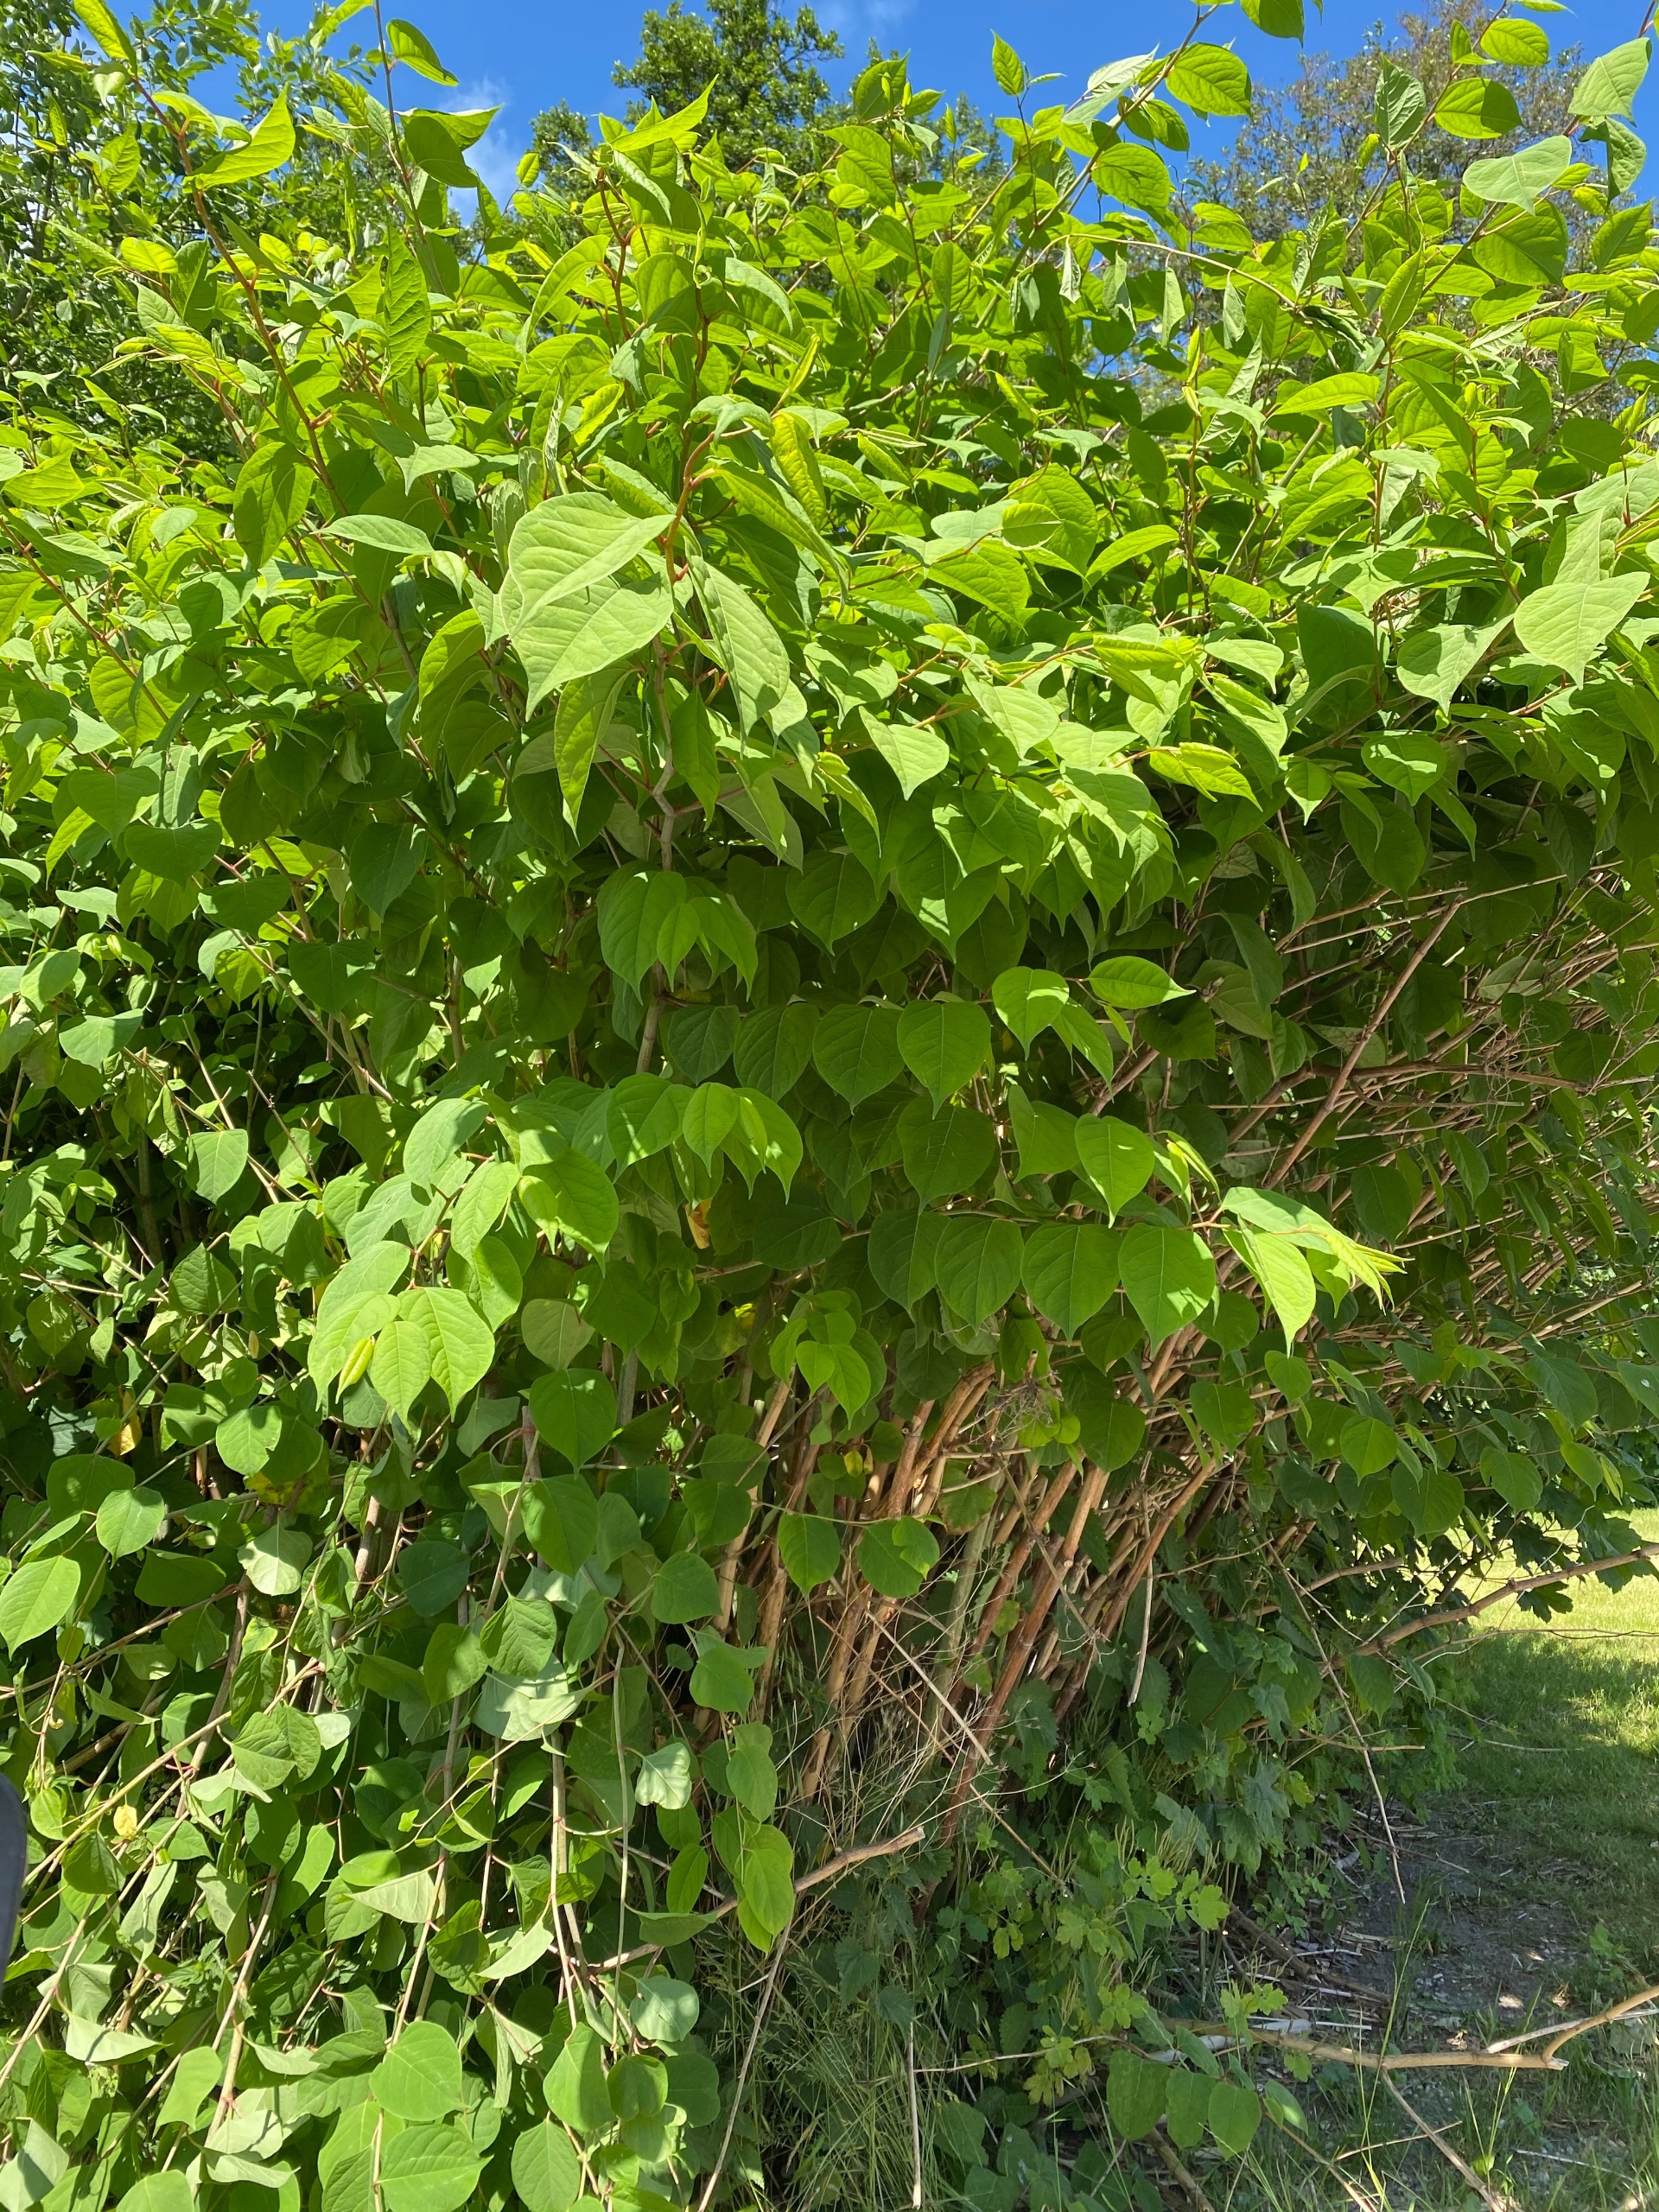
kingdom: Plantae
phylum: Tracheophyta
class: Magnoliopsida
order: Caryophyllales
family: Polygonaceae
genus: Reynoutria
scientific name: Reynoutria japonica
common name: Japan-pileurt
